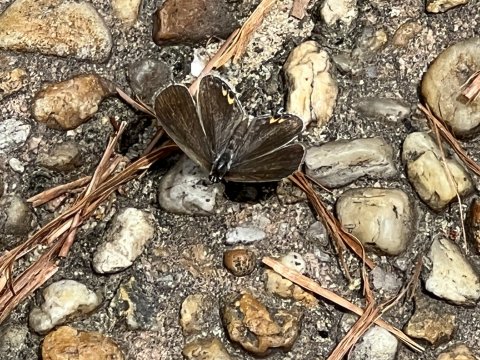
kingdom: Animalia
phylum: Arthropoda
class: Insecta
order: Lepidoptera
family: Hesperiidae
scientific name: Hesperiidae
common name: Skippers
